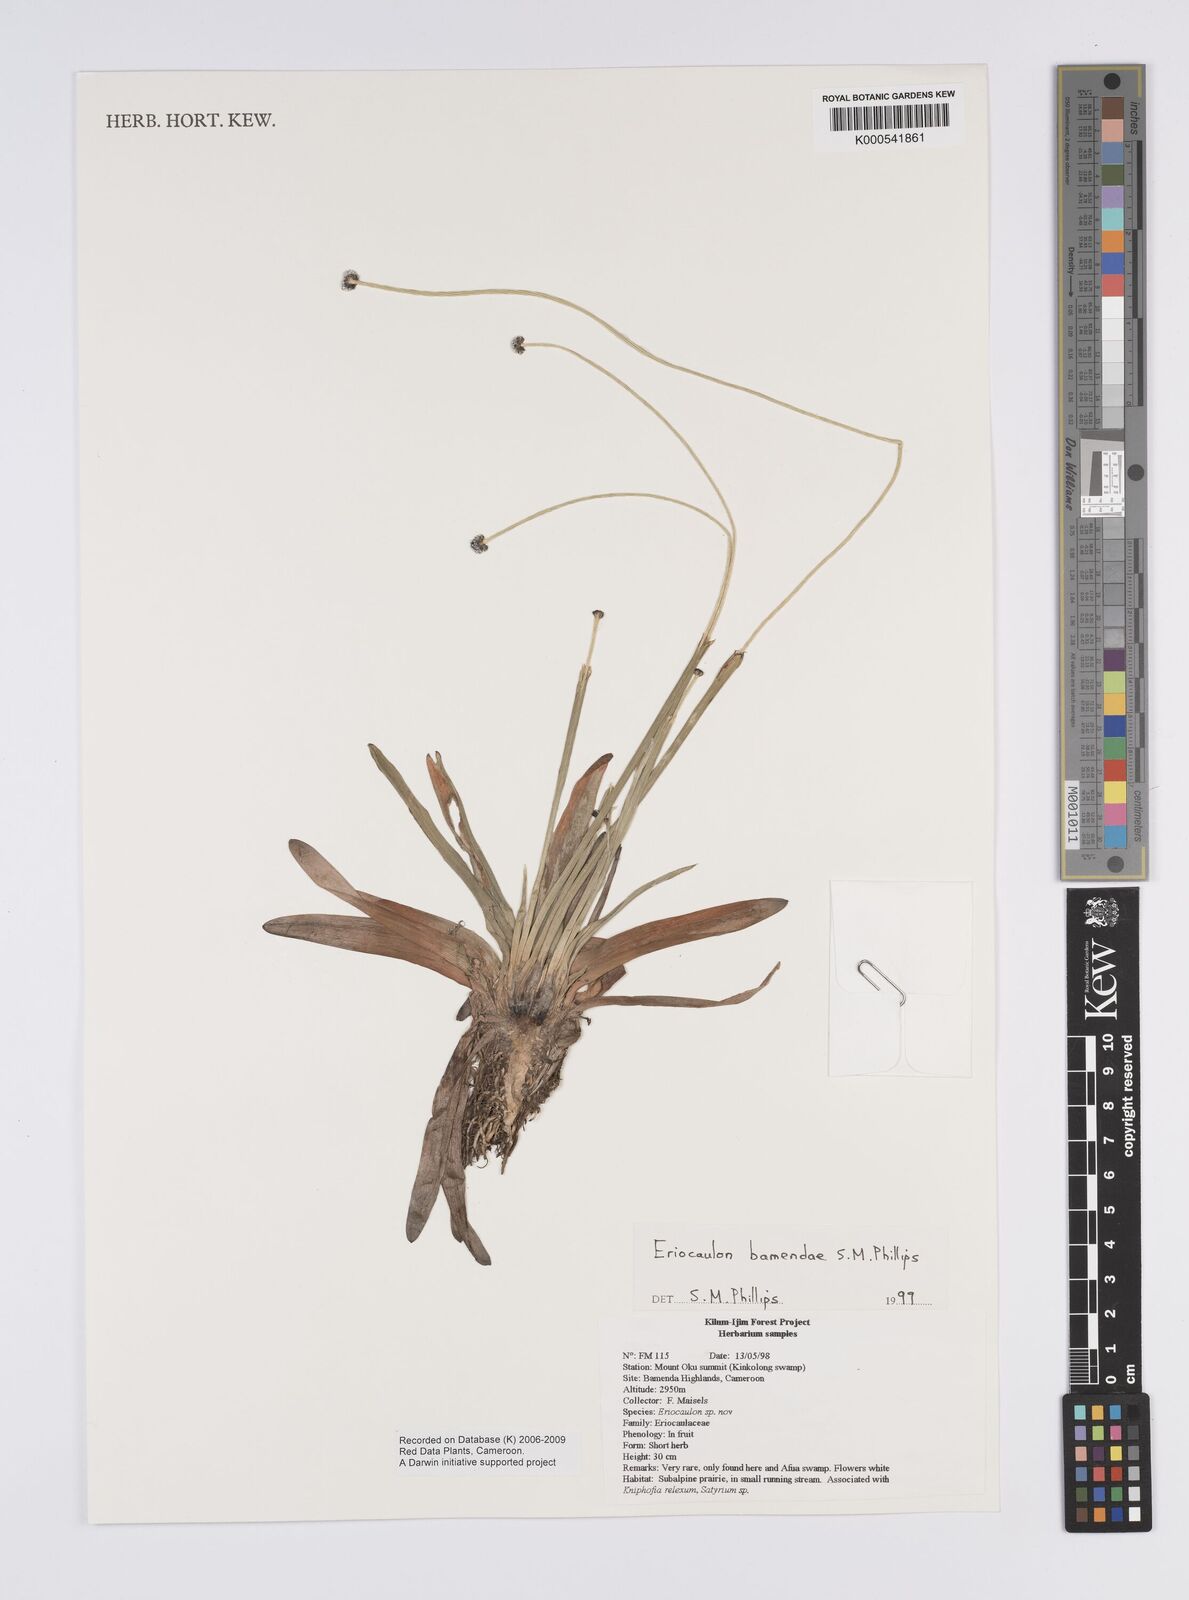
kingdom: Plantae
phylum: Tracheophyta
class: Liliopsida
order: Poales
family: Eriocaulaceae
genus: Eriocaulon
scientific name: Eriocaulon bamendae
